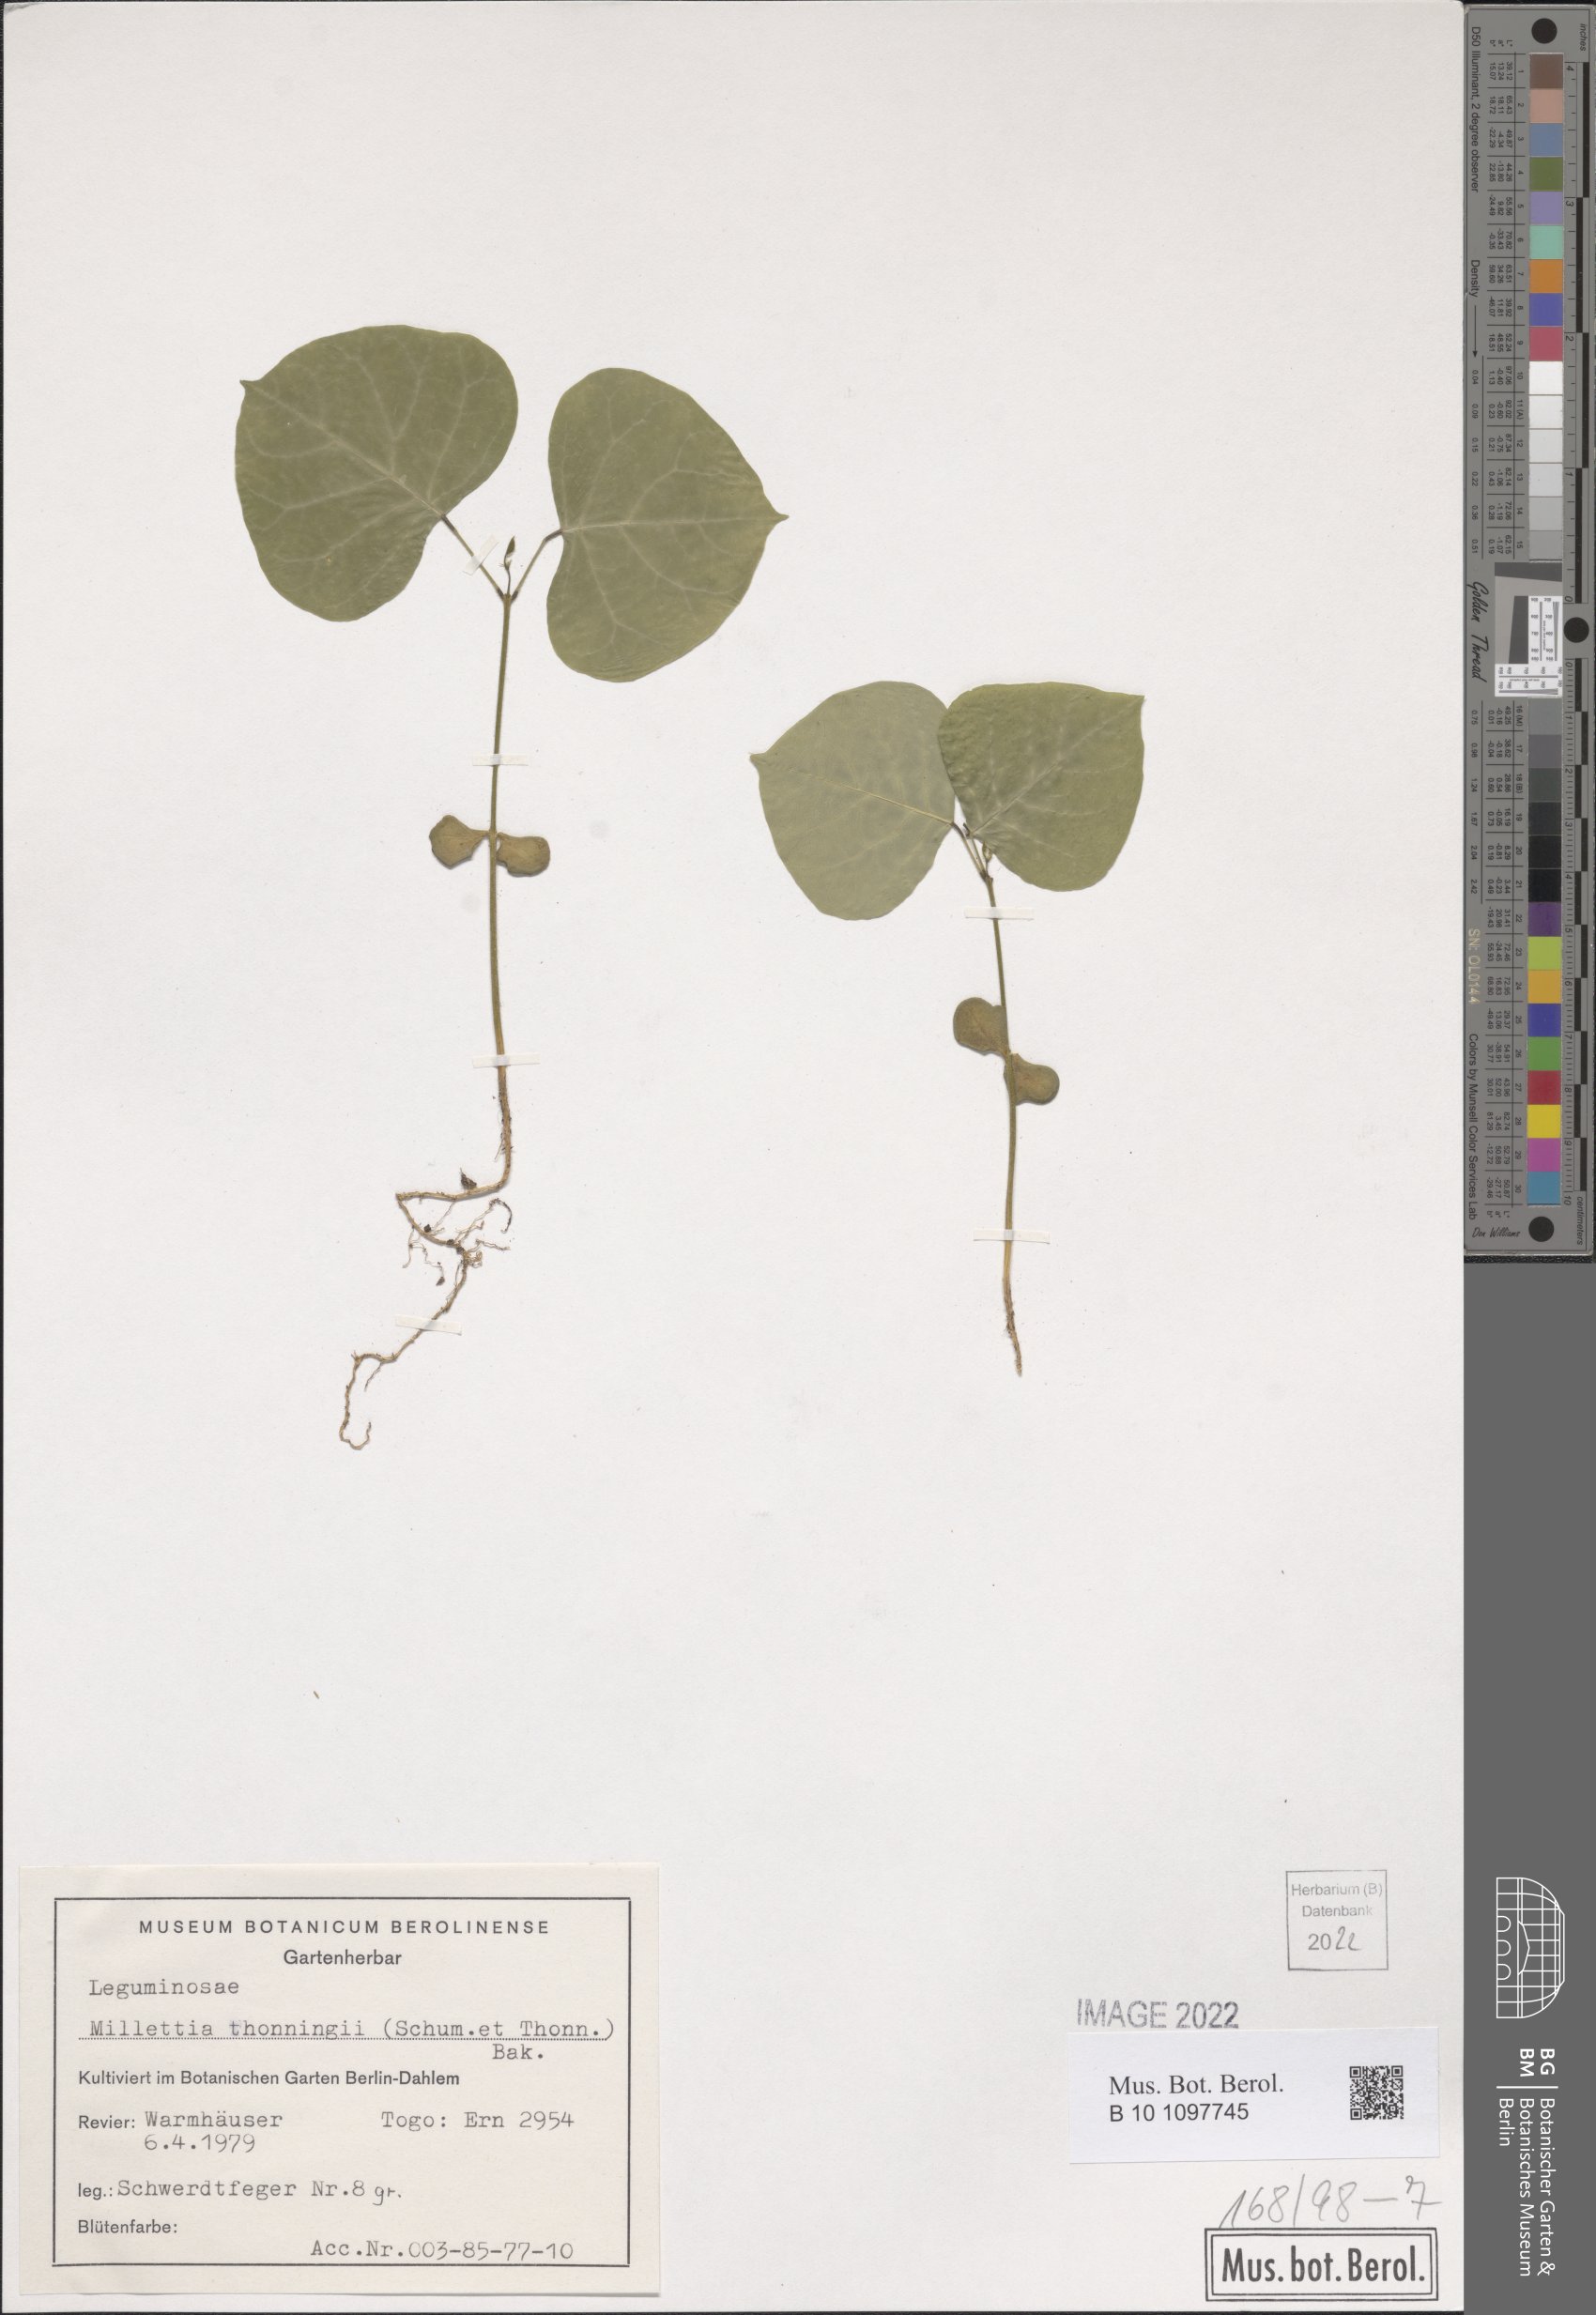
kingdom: Plantae
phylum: Tracheophyta
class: Magnoliopsida
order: Fabales
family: Fabaceae
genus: Millettia
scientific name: Millettia thonningii
